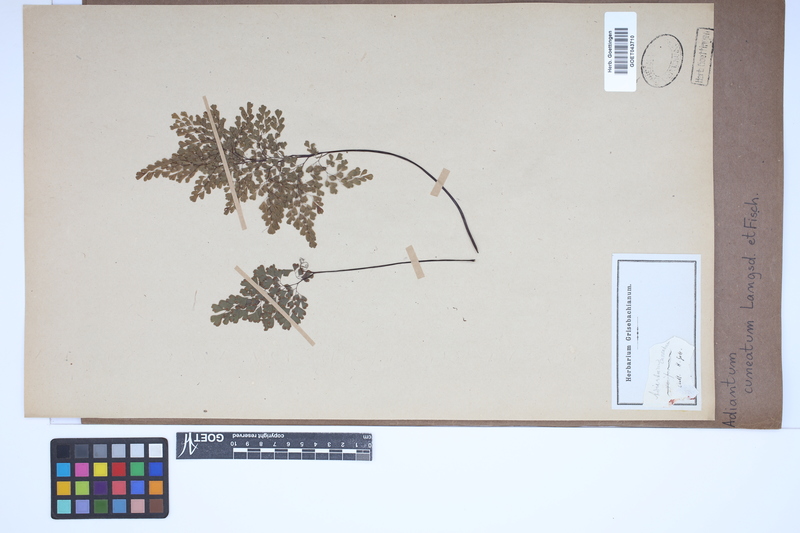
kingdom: Plantae
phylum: Tracheophyta
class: Polypodiopsida
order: Polypodiales
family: Pteridaceae
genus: Adiantum
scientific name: Adiantum raddianum
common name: Delta maidenhair fern
